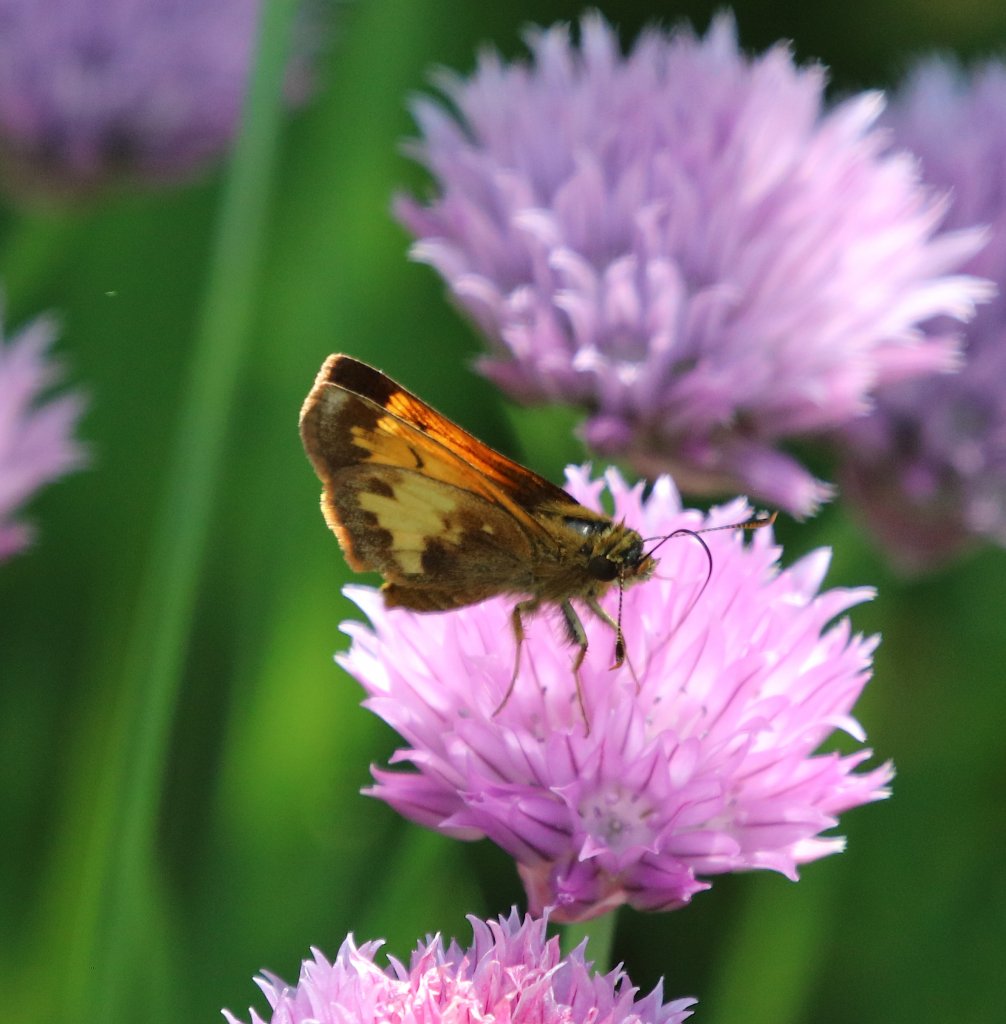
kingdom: Animalia
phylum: Arthropoda
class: Insecta
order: Lepidoptera
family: Hesperiidae
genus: Lon
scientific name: Lon hobomok
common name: Hobomok Skipper
